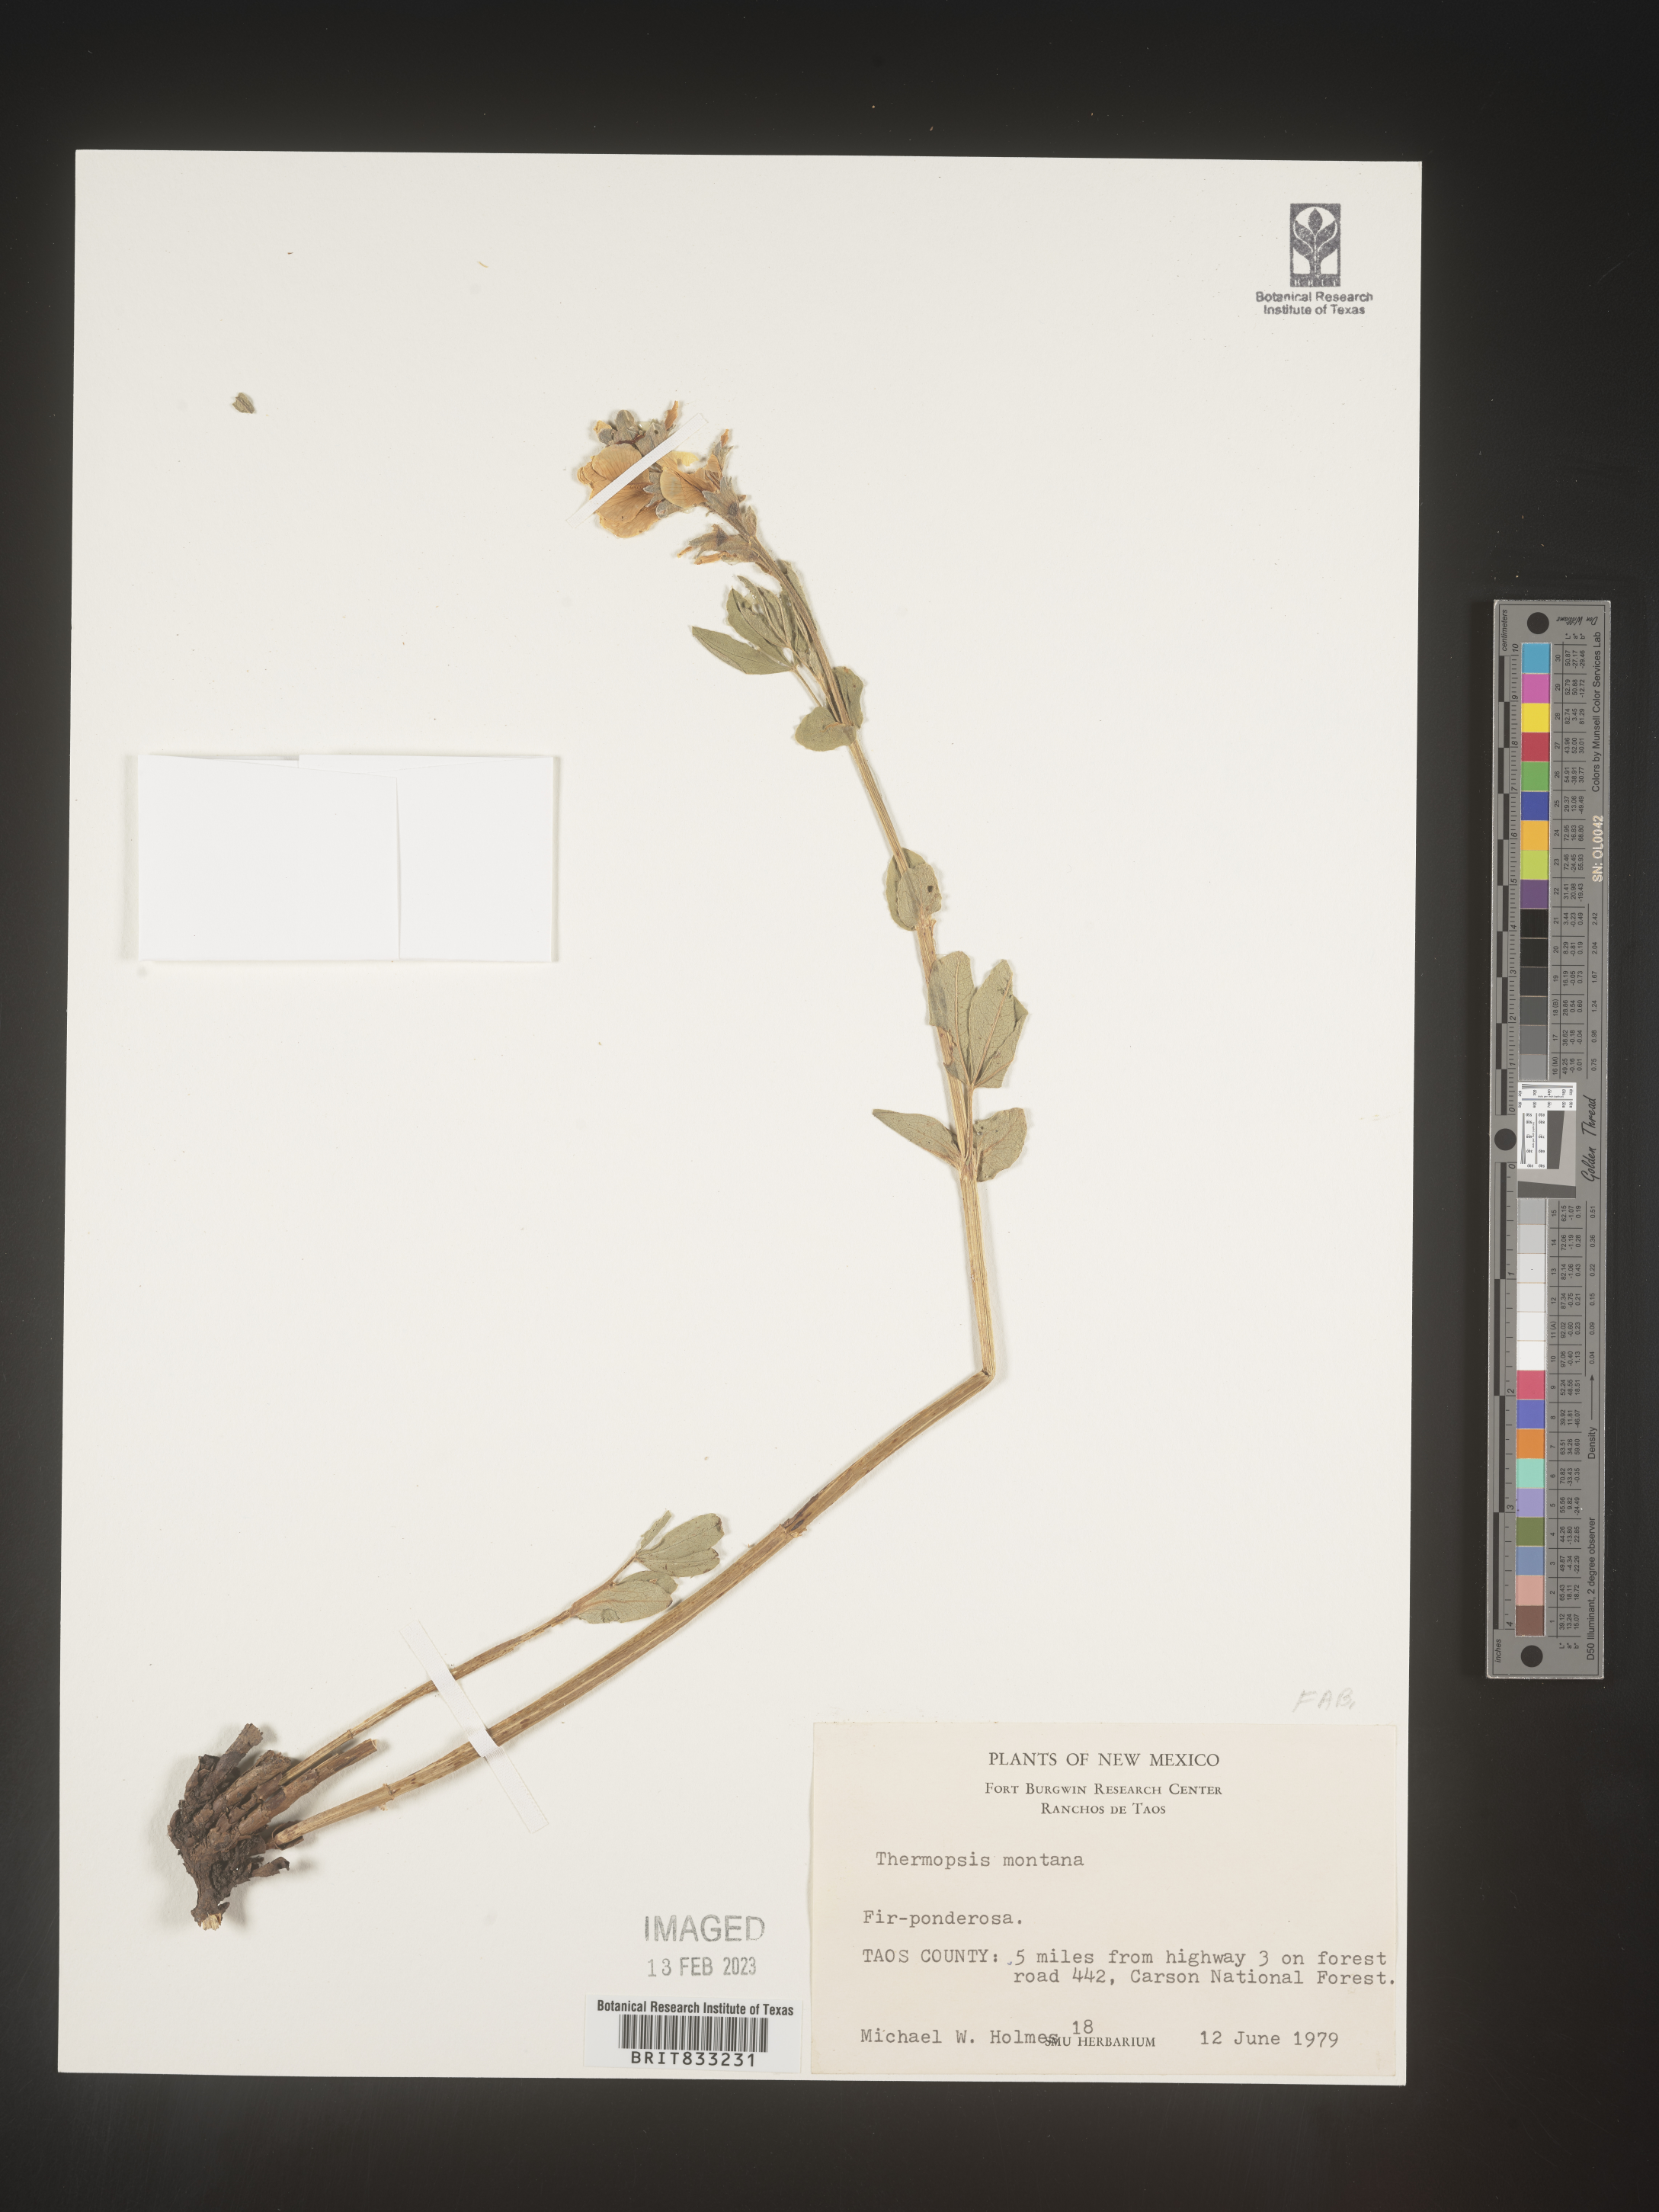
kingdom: Plantae
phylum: Tracheophyta
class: Magnoliopsida
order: Fabales
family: Fabaceae
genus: Thermopsis
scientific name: Thermopsis montana
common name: False lupin
